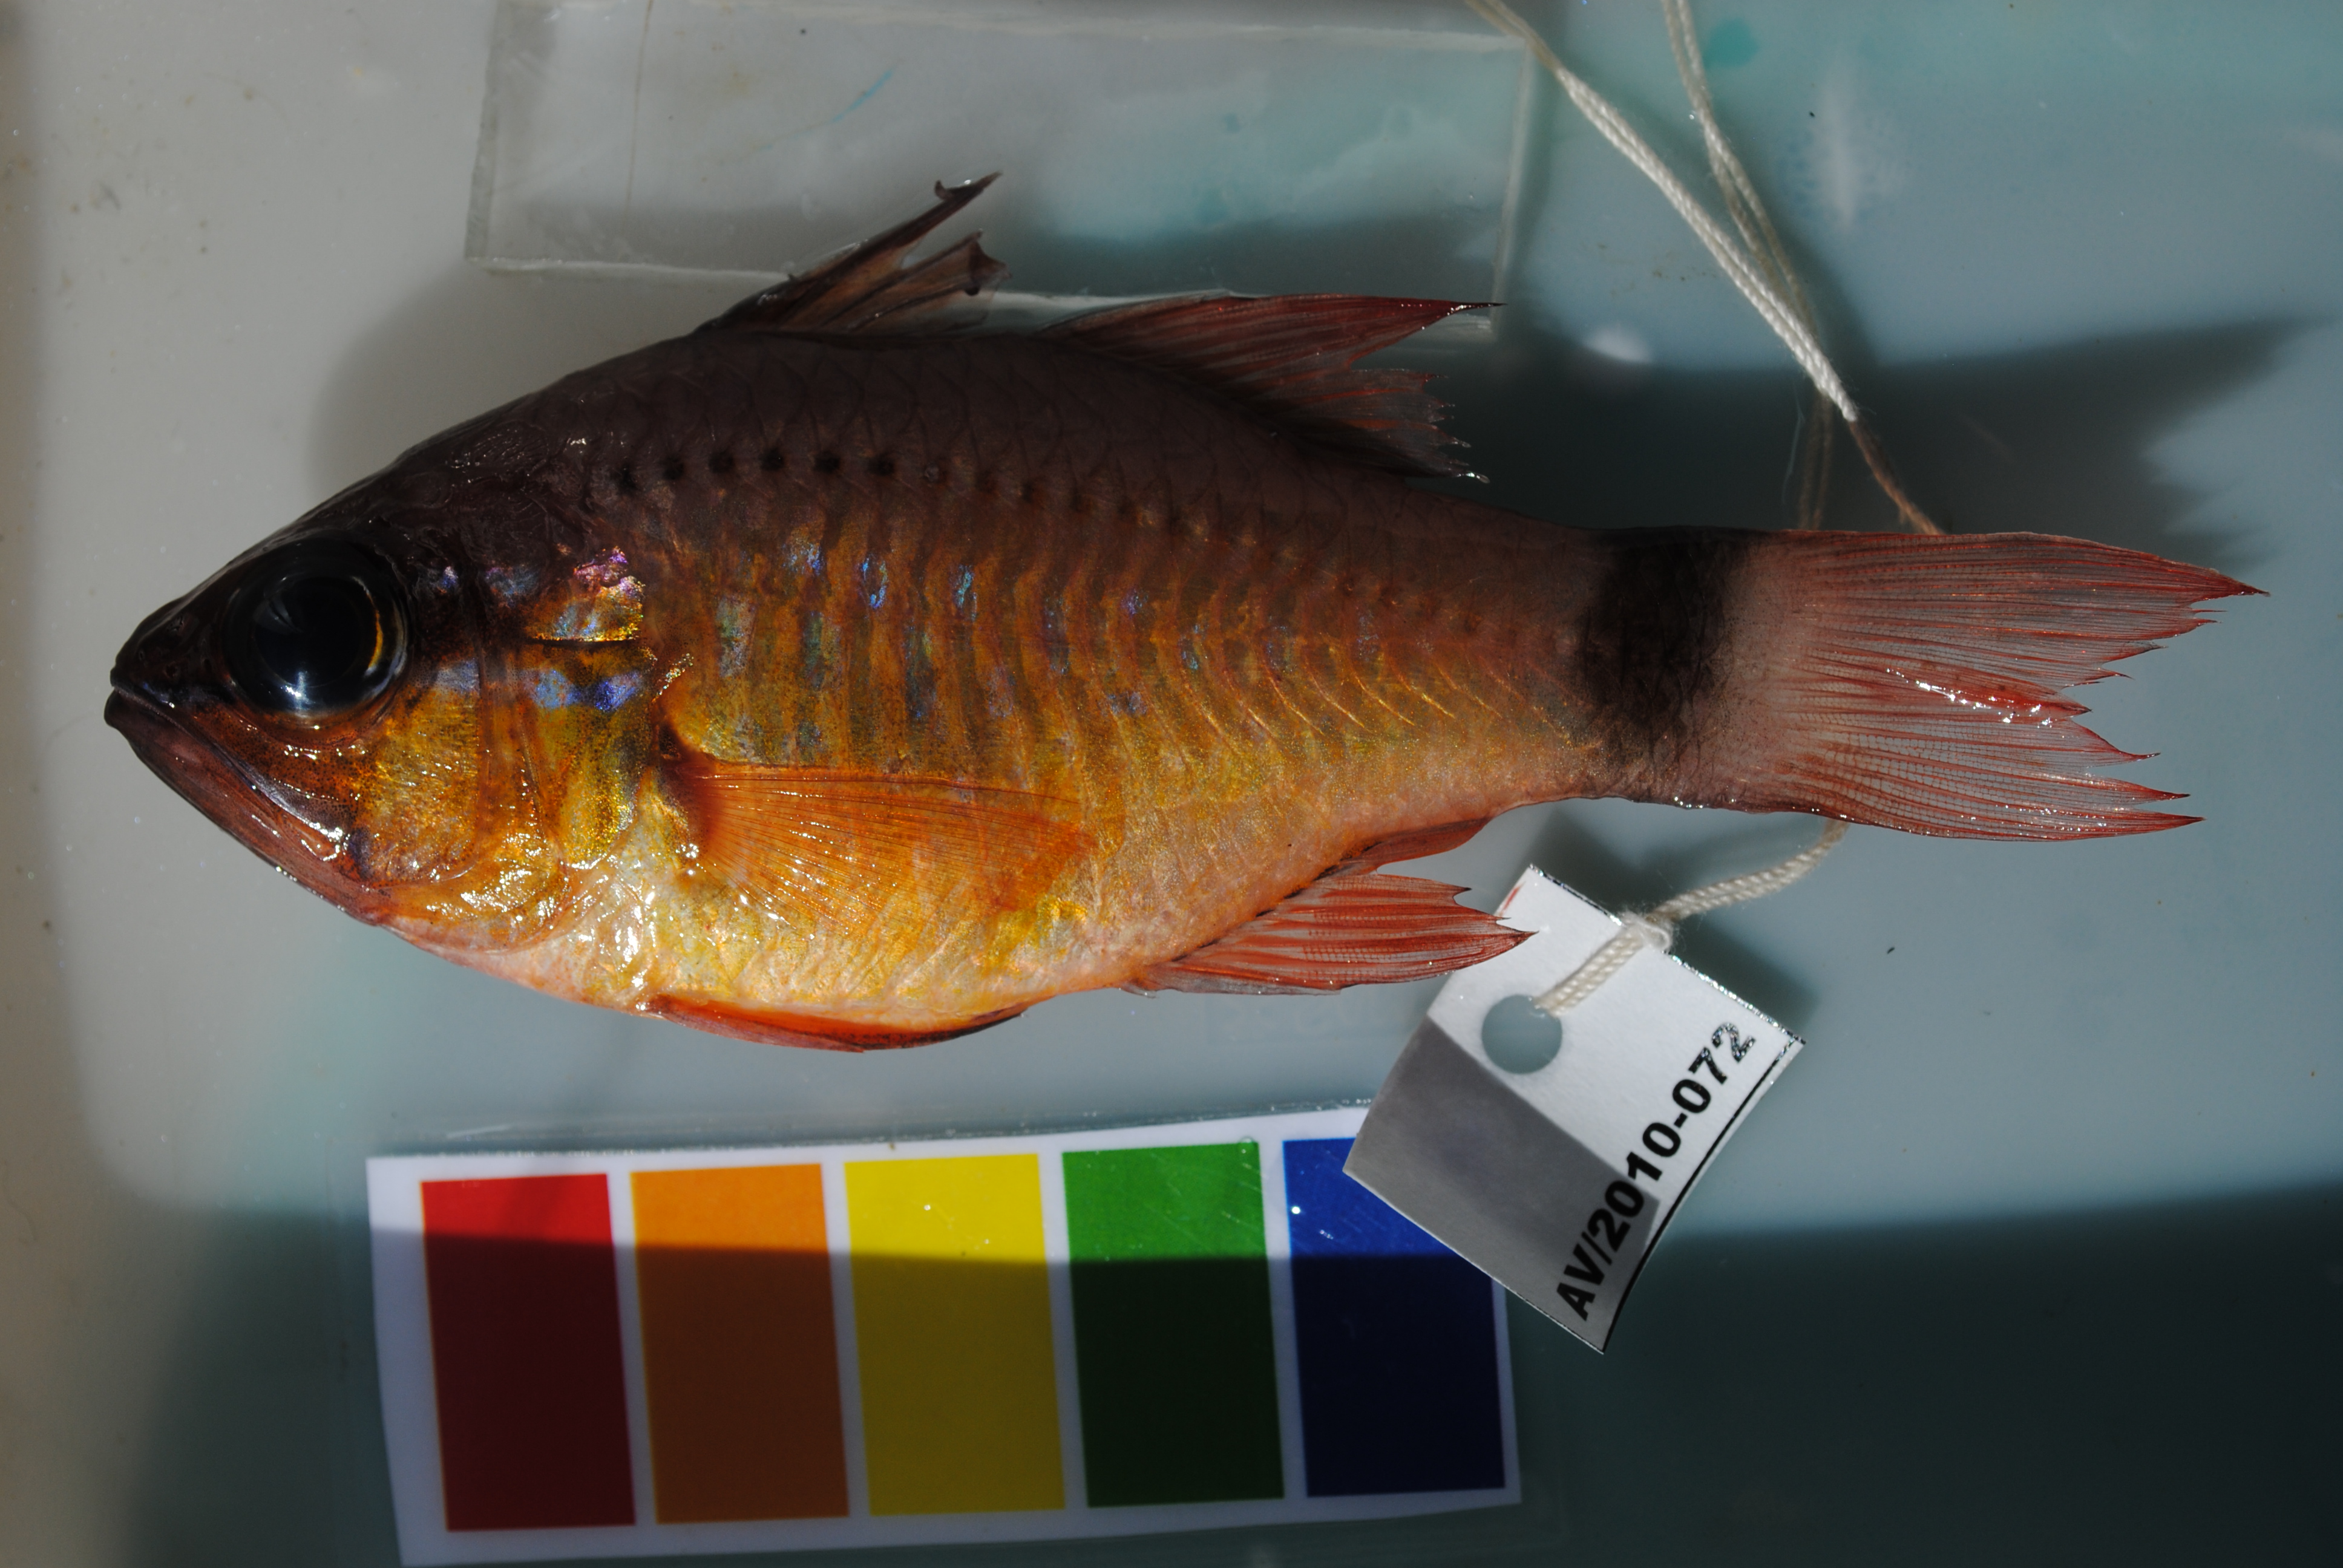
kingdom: Animalia
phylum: Chordata
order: Perciformes
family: Apogonidae
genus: Ostorhinchus
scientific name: Ostorhinchus fleurieu
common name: Bullseye cardinalfish
